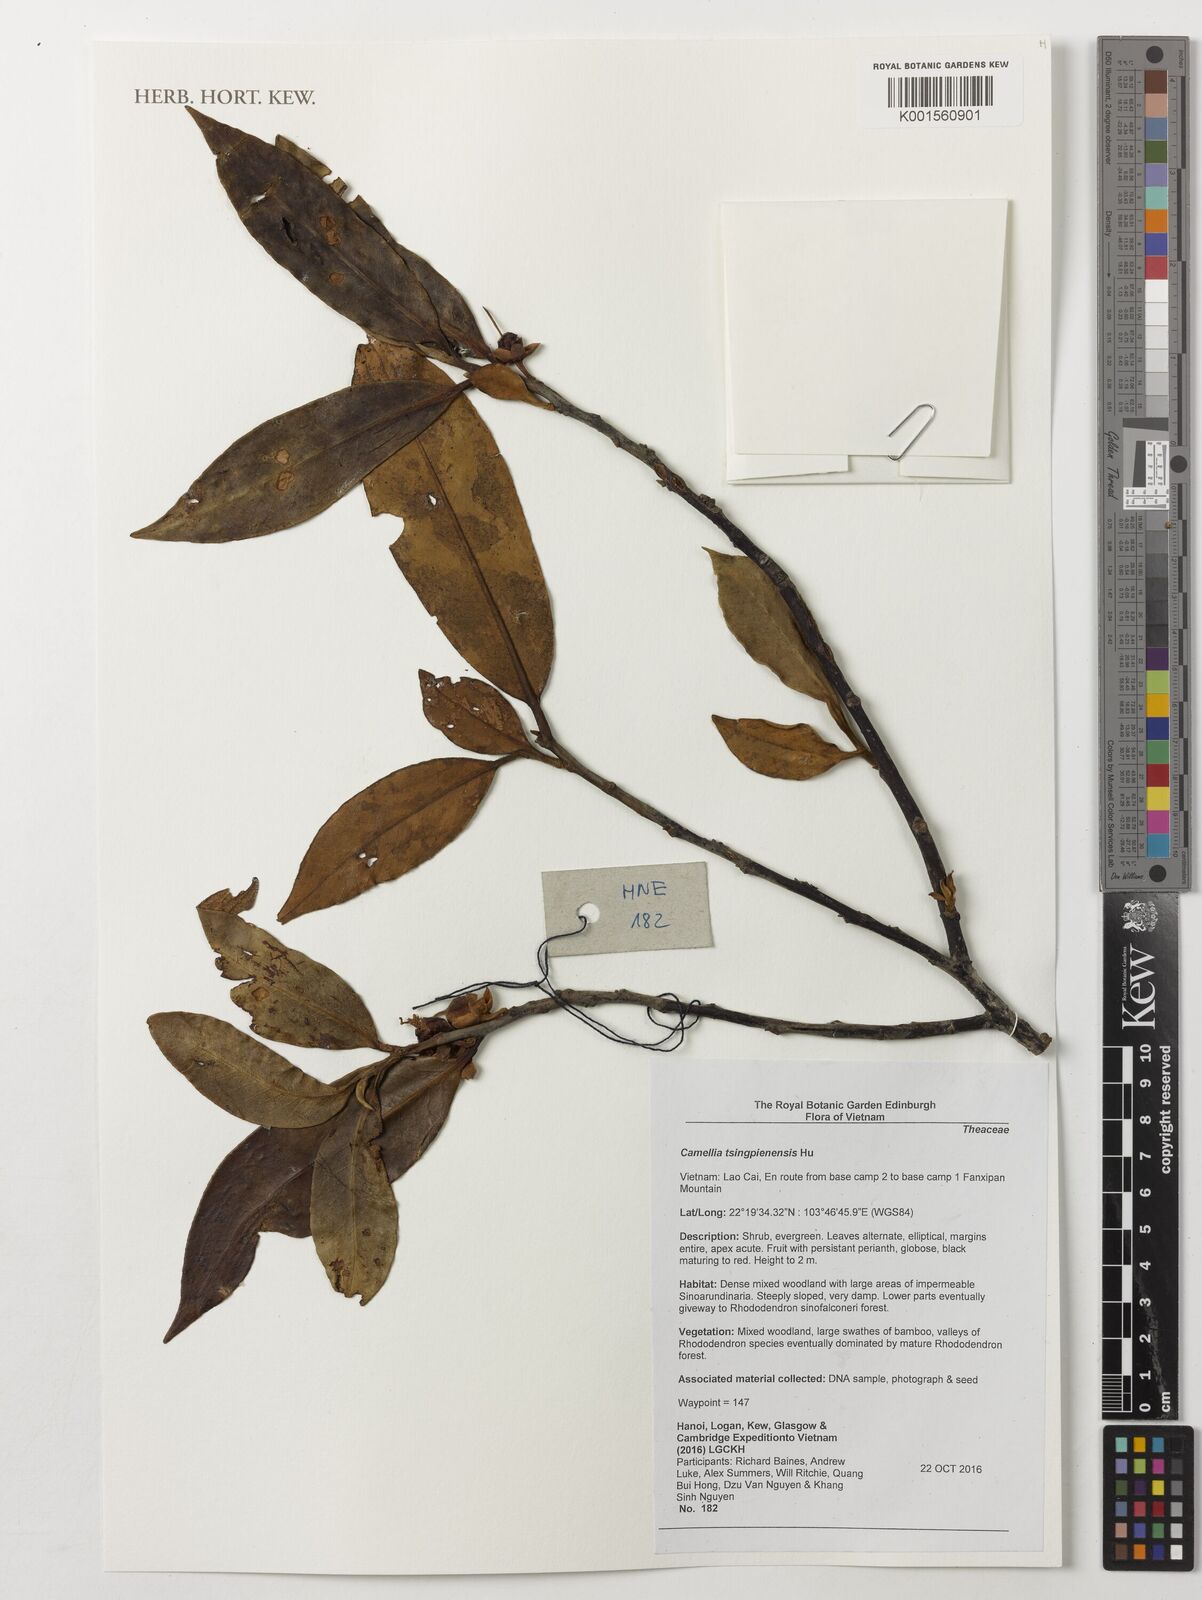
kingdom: Plantae
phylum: Tracheophyta
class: Magnoliopsida
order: Ericales
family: Theaceae
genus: Camellia
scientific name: Camellia tsingpienensis
